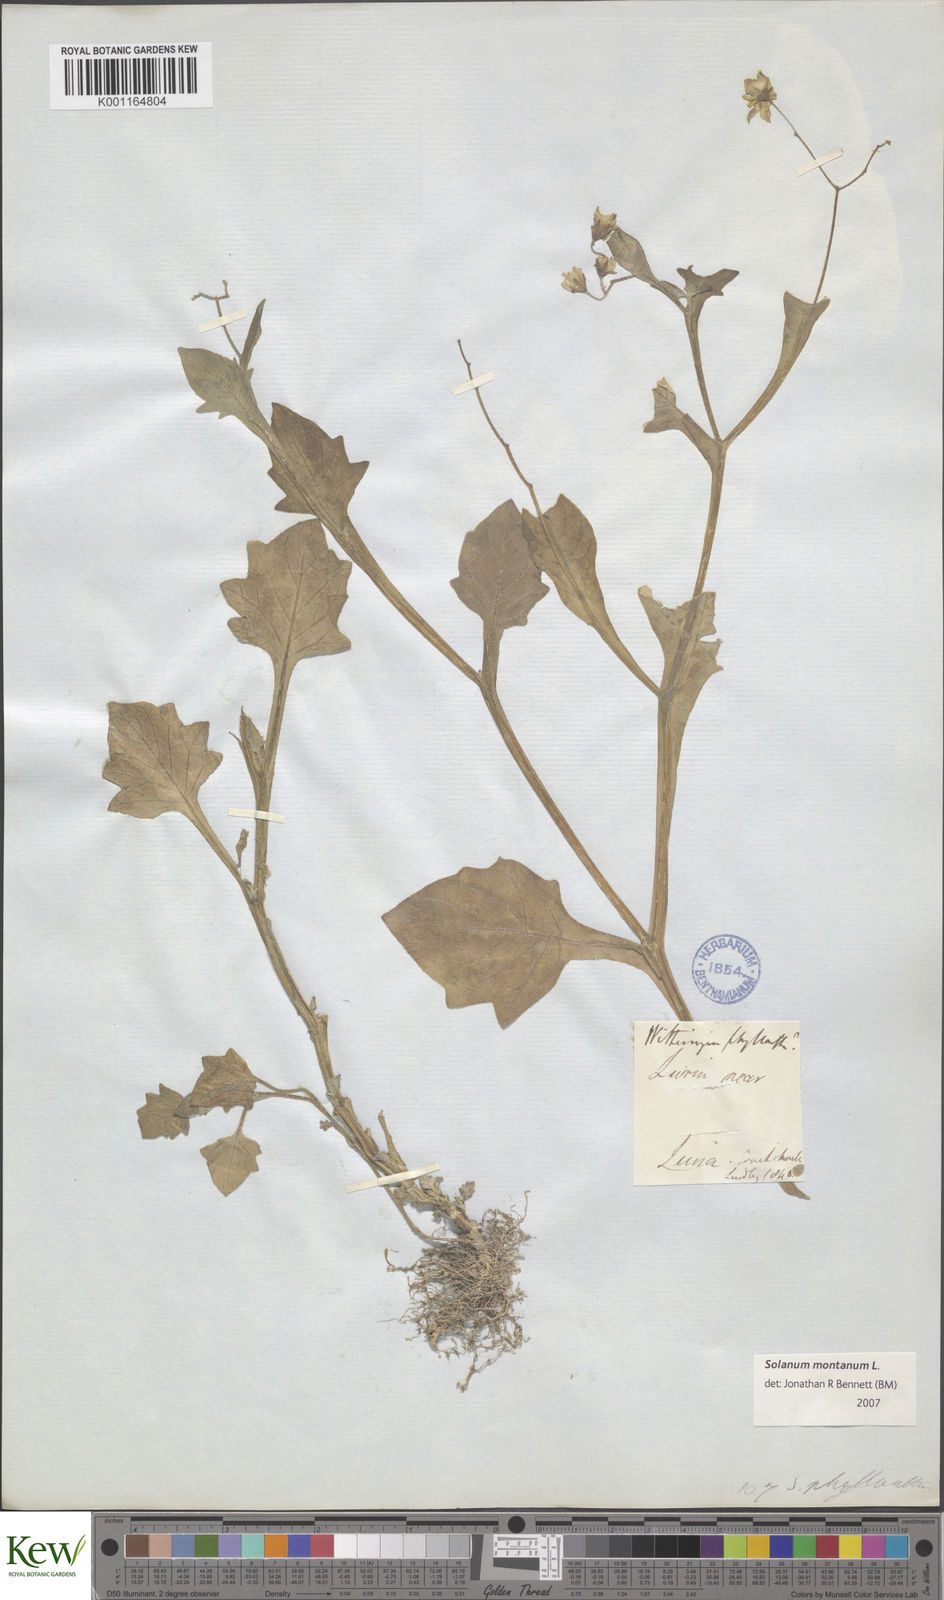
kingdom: Plantae
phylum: Tracheophyta
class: Magnoliopsida
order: Solanales
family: Solanaceae
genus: Solanum
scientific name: Solanum montanum
